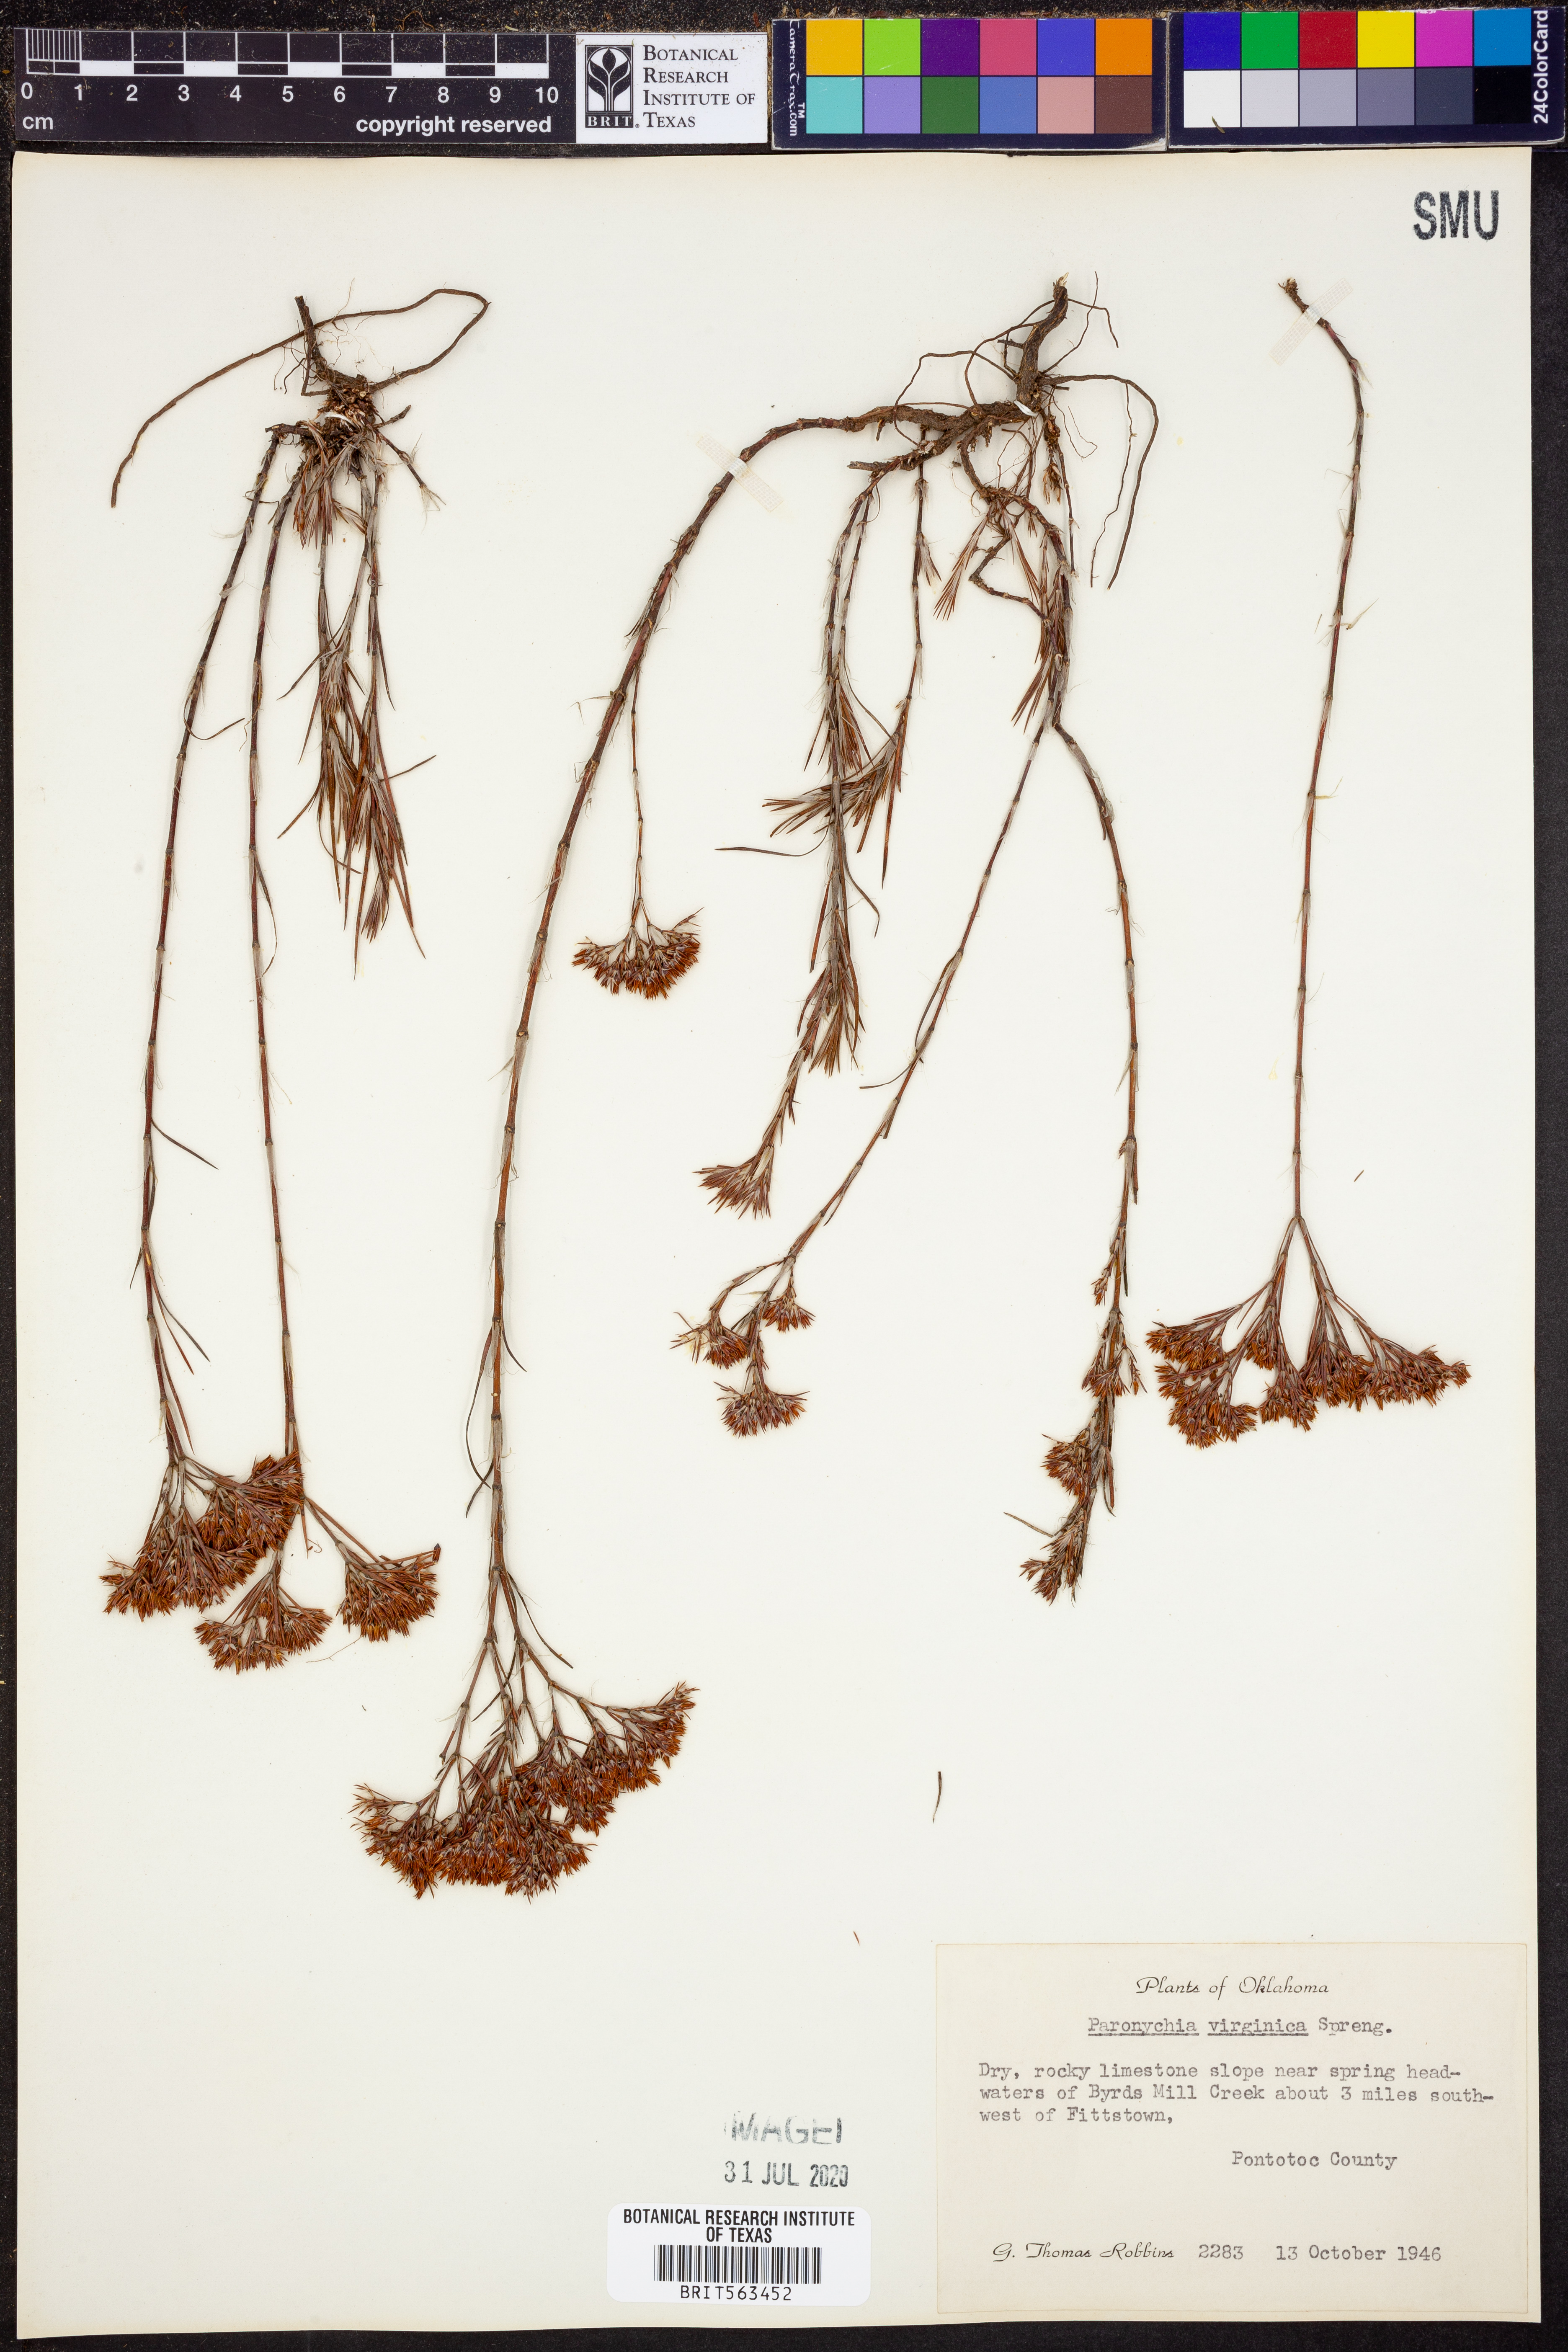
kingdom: Plantae
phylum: Tracheophyta
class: Magnoliopsida
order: Caryophyllales
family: Caryophyllaceae
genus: Paronychia
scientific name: Paronychia virginica
